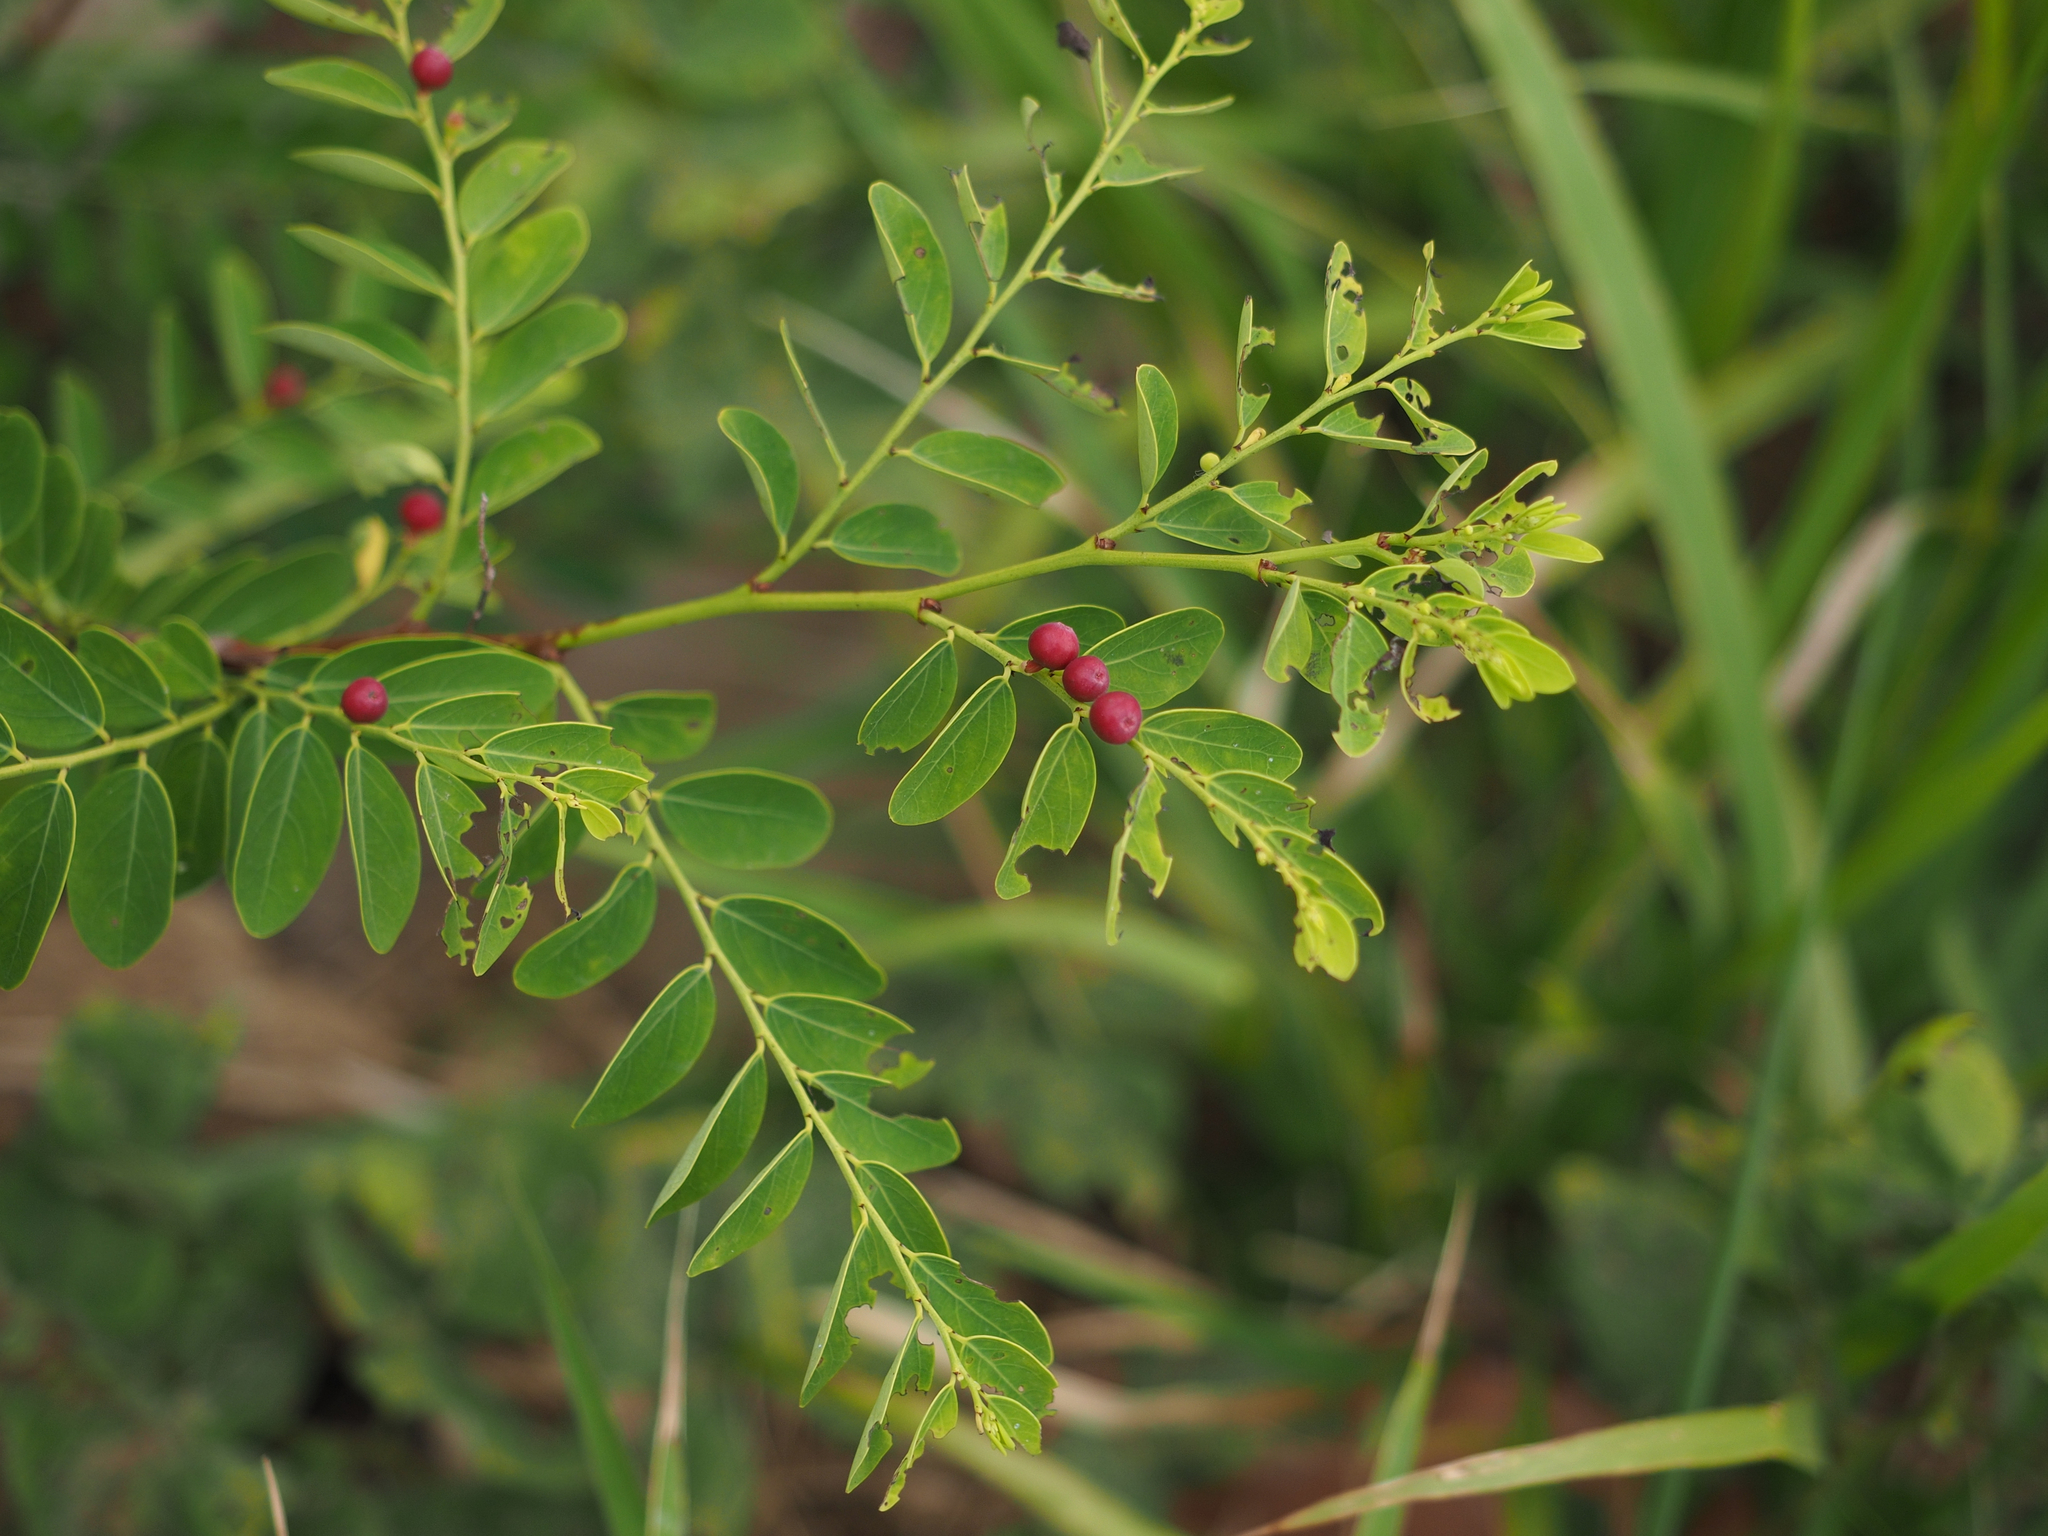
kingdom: Plantae
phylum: Tracheophyta
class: Magnoliopsida
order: Malpighiales
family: Phyllanthaceae
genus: Breynia
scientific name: Breynia officinalis
